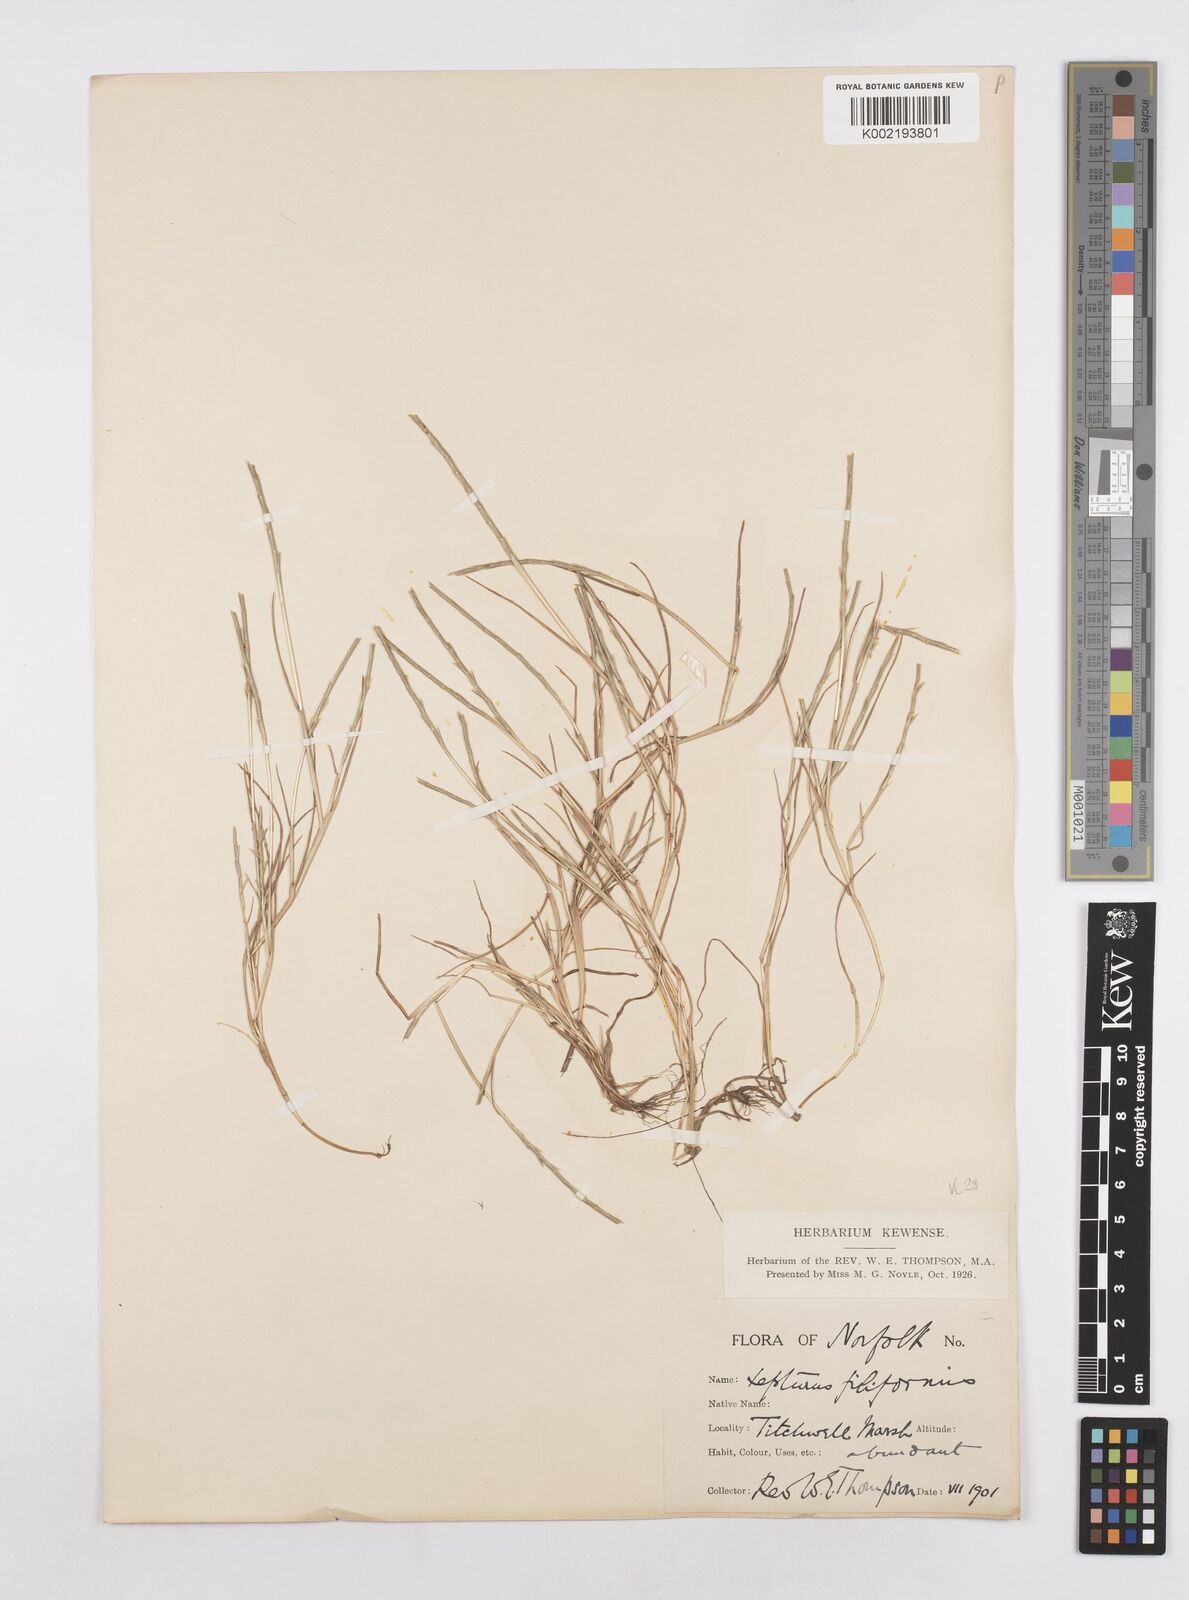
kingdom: Plantae
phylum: Tracheophyta
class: Liliopsida
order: Poales
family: Poaceae
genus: Parapholis
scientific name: Parapholis
